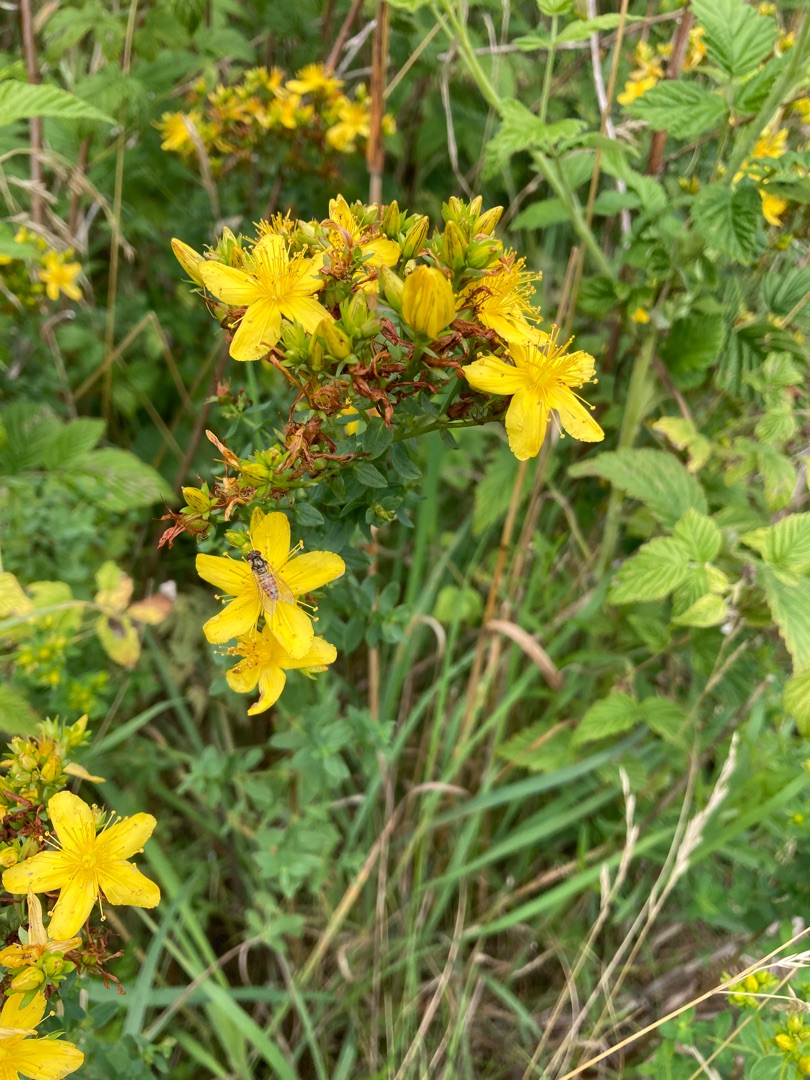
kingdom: Plantae
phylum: Tracheophyta
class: Magnoliopsida
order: Malpighiales
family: Hypericaceae
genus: Hypericum
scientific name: Hypericum perforatum
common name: Prikbladet perikon
